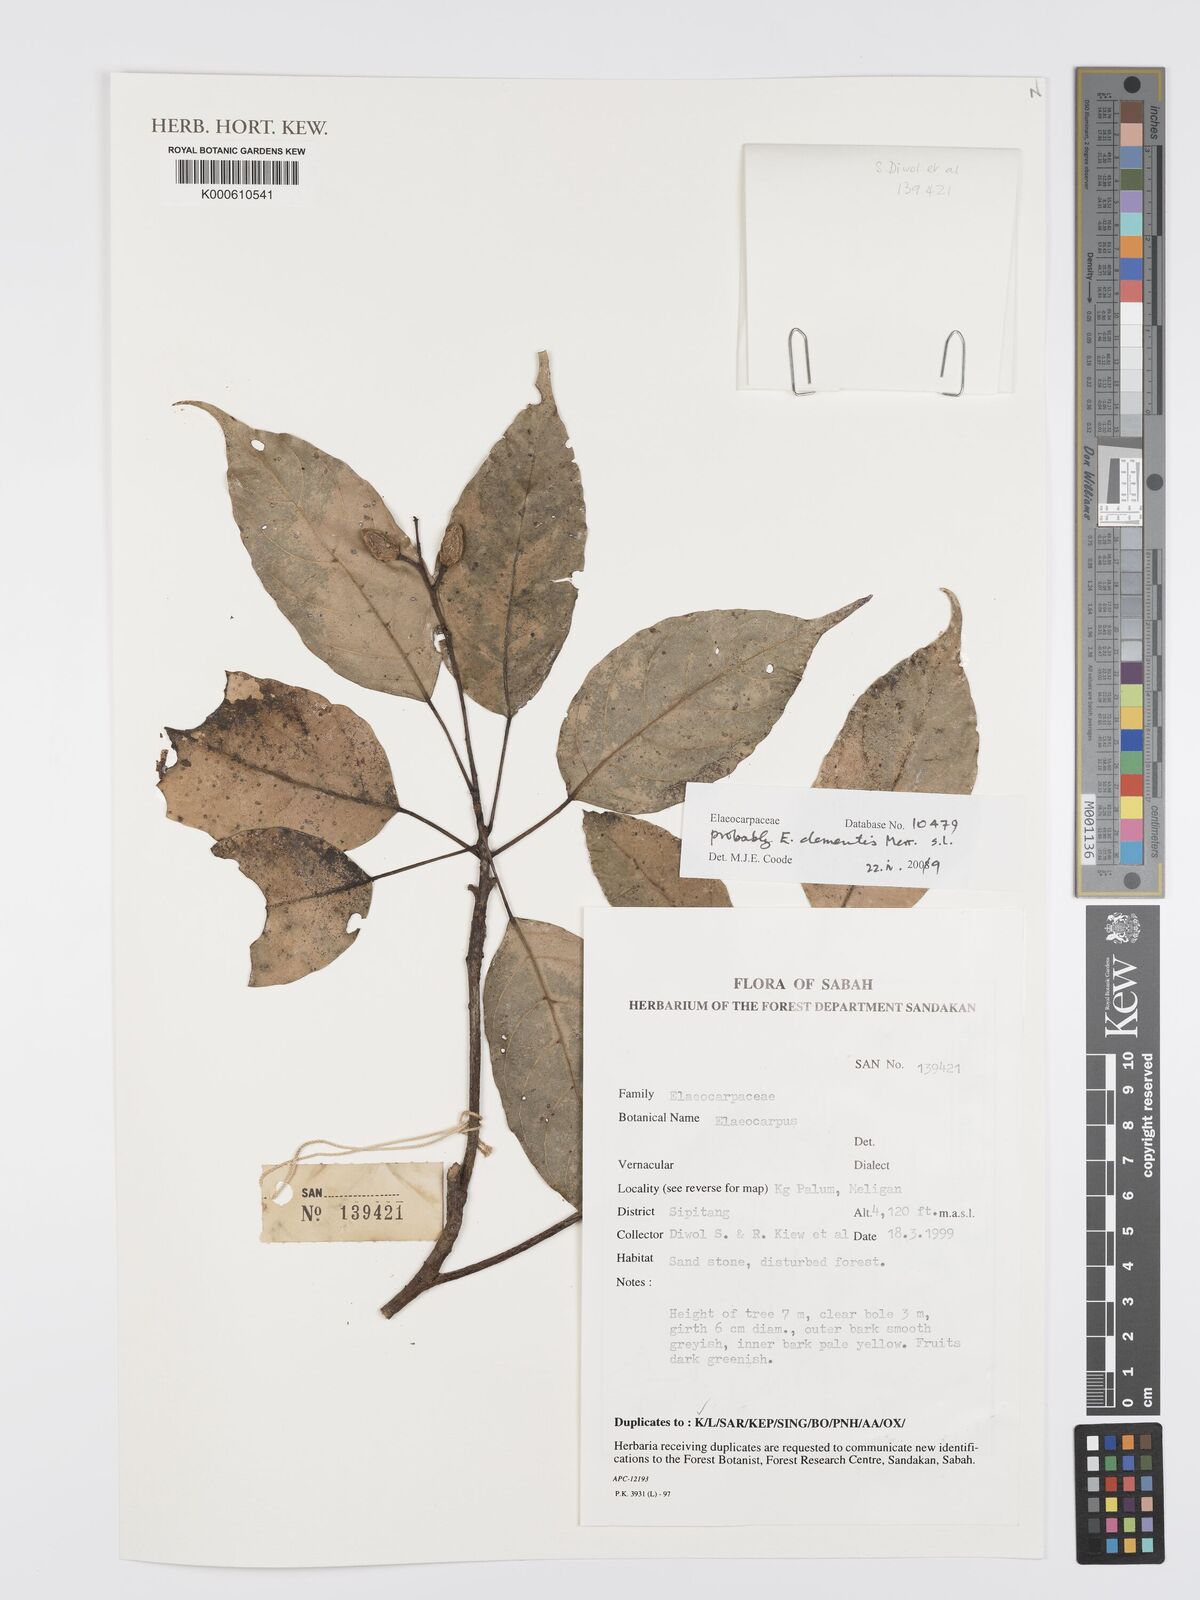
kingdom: Plantae
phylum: Tracheophyta
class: Magnoliopsida
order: Oxalidales
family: Elaeocarpaceae
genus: Elaeocarpus
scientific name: Elaeocarpus
